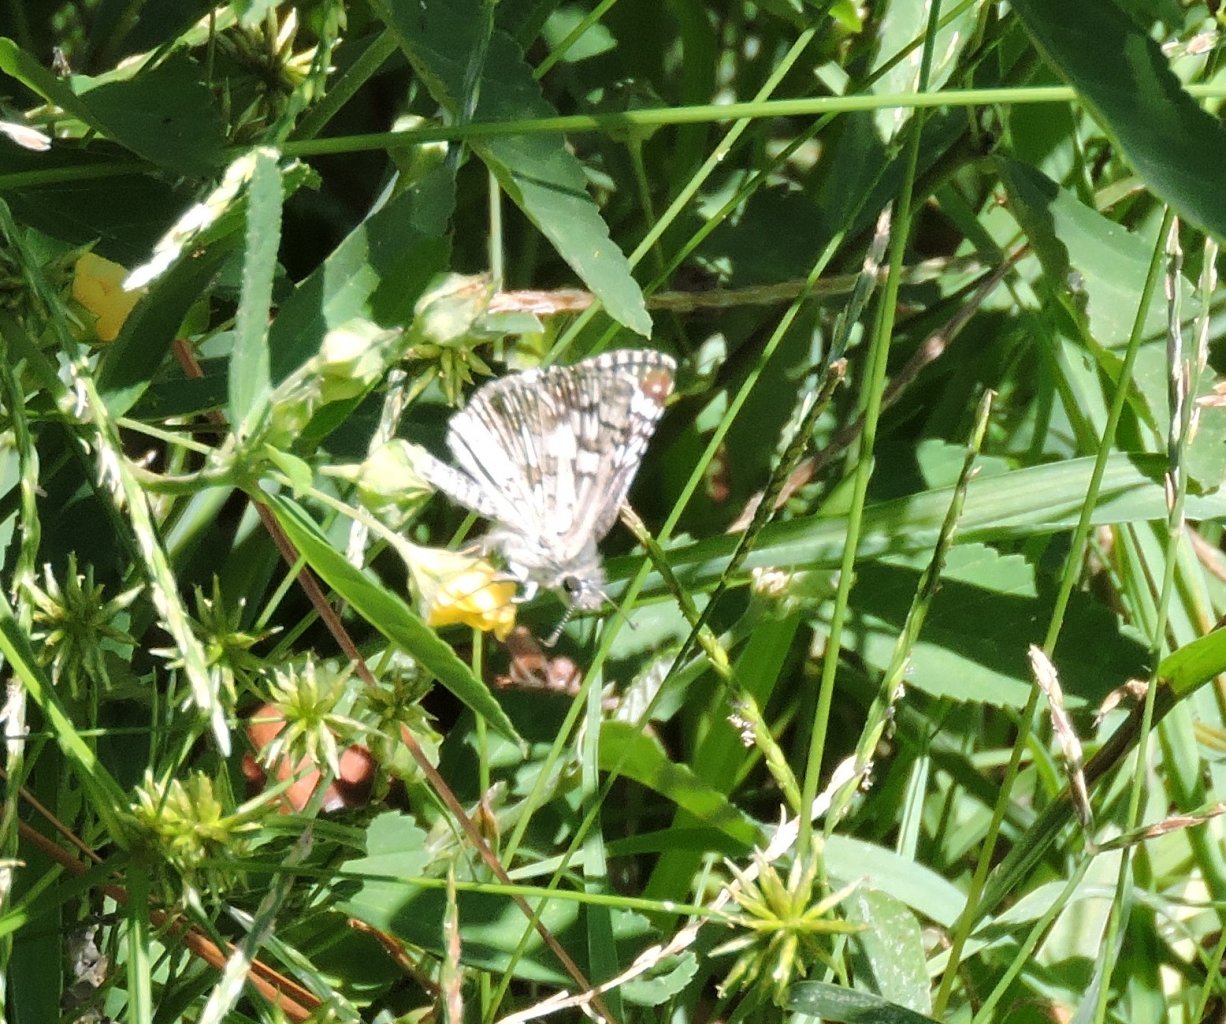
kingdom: Animalia
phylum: Arthropoda
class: Insecta
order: Lepidoptera
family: Hesperiidae
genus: Pyrgus
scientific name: Pyrgus
